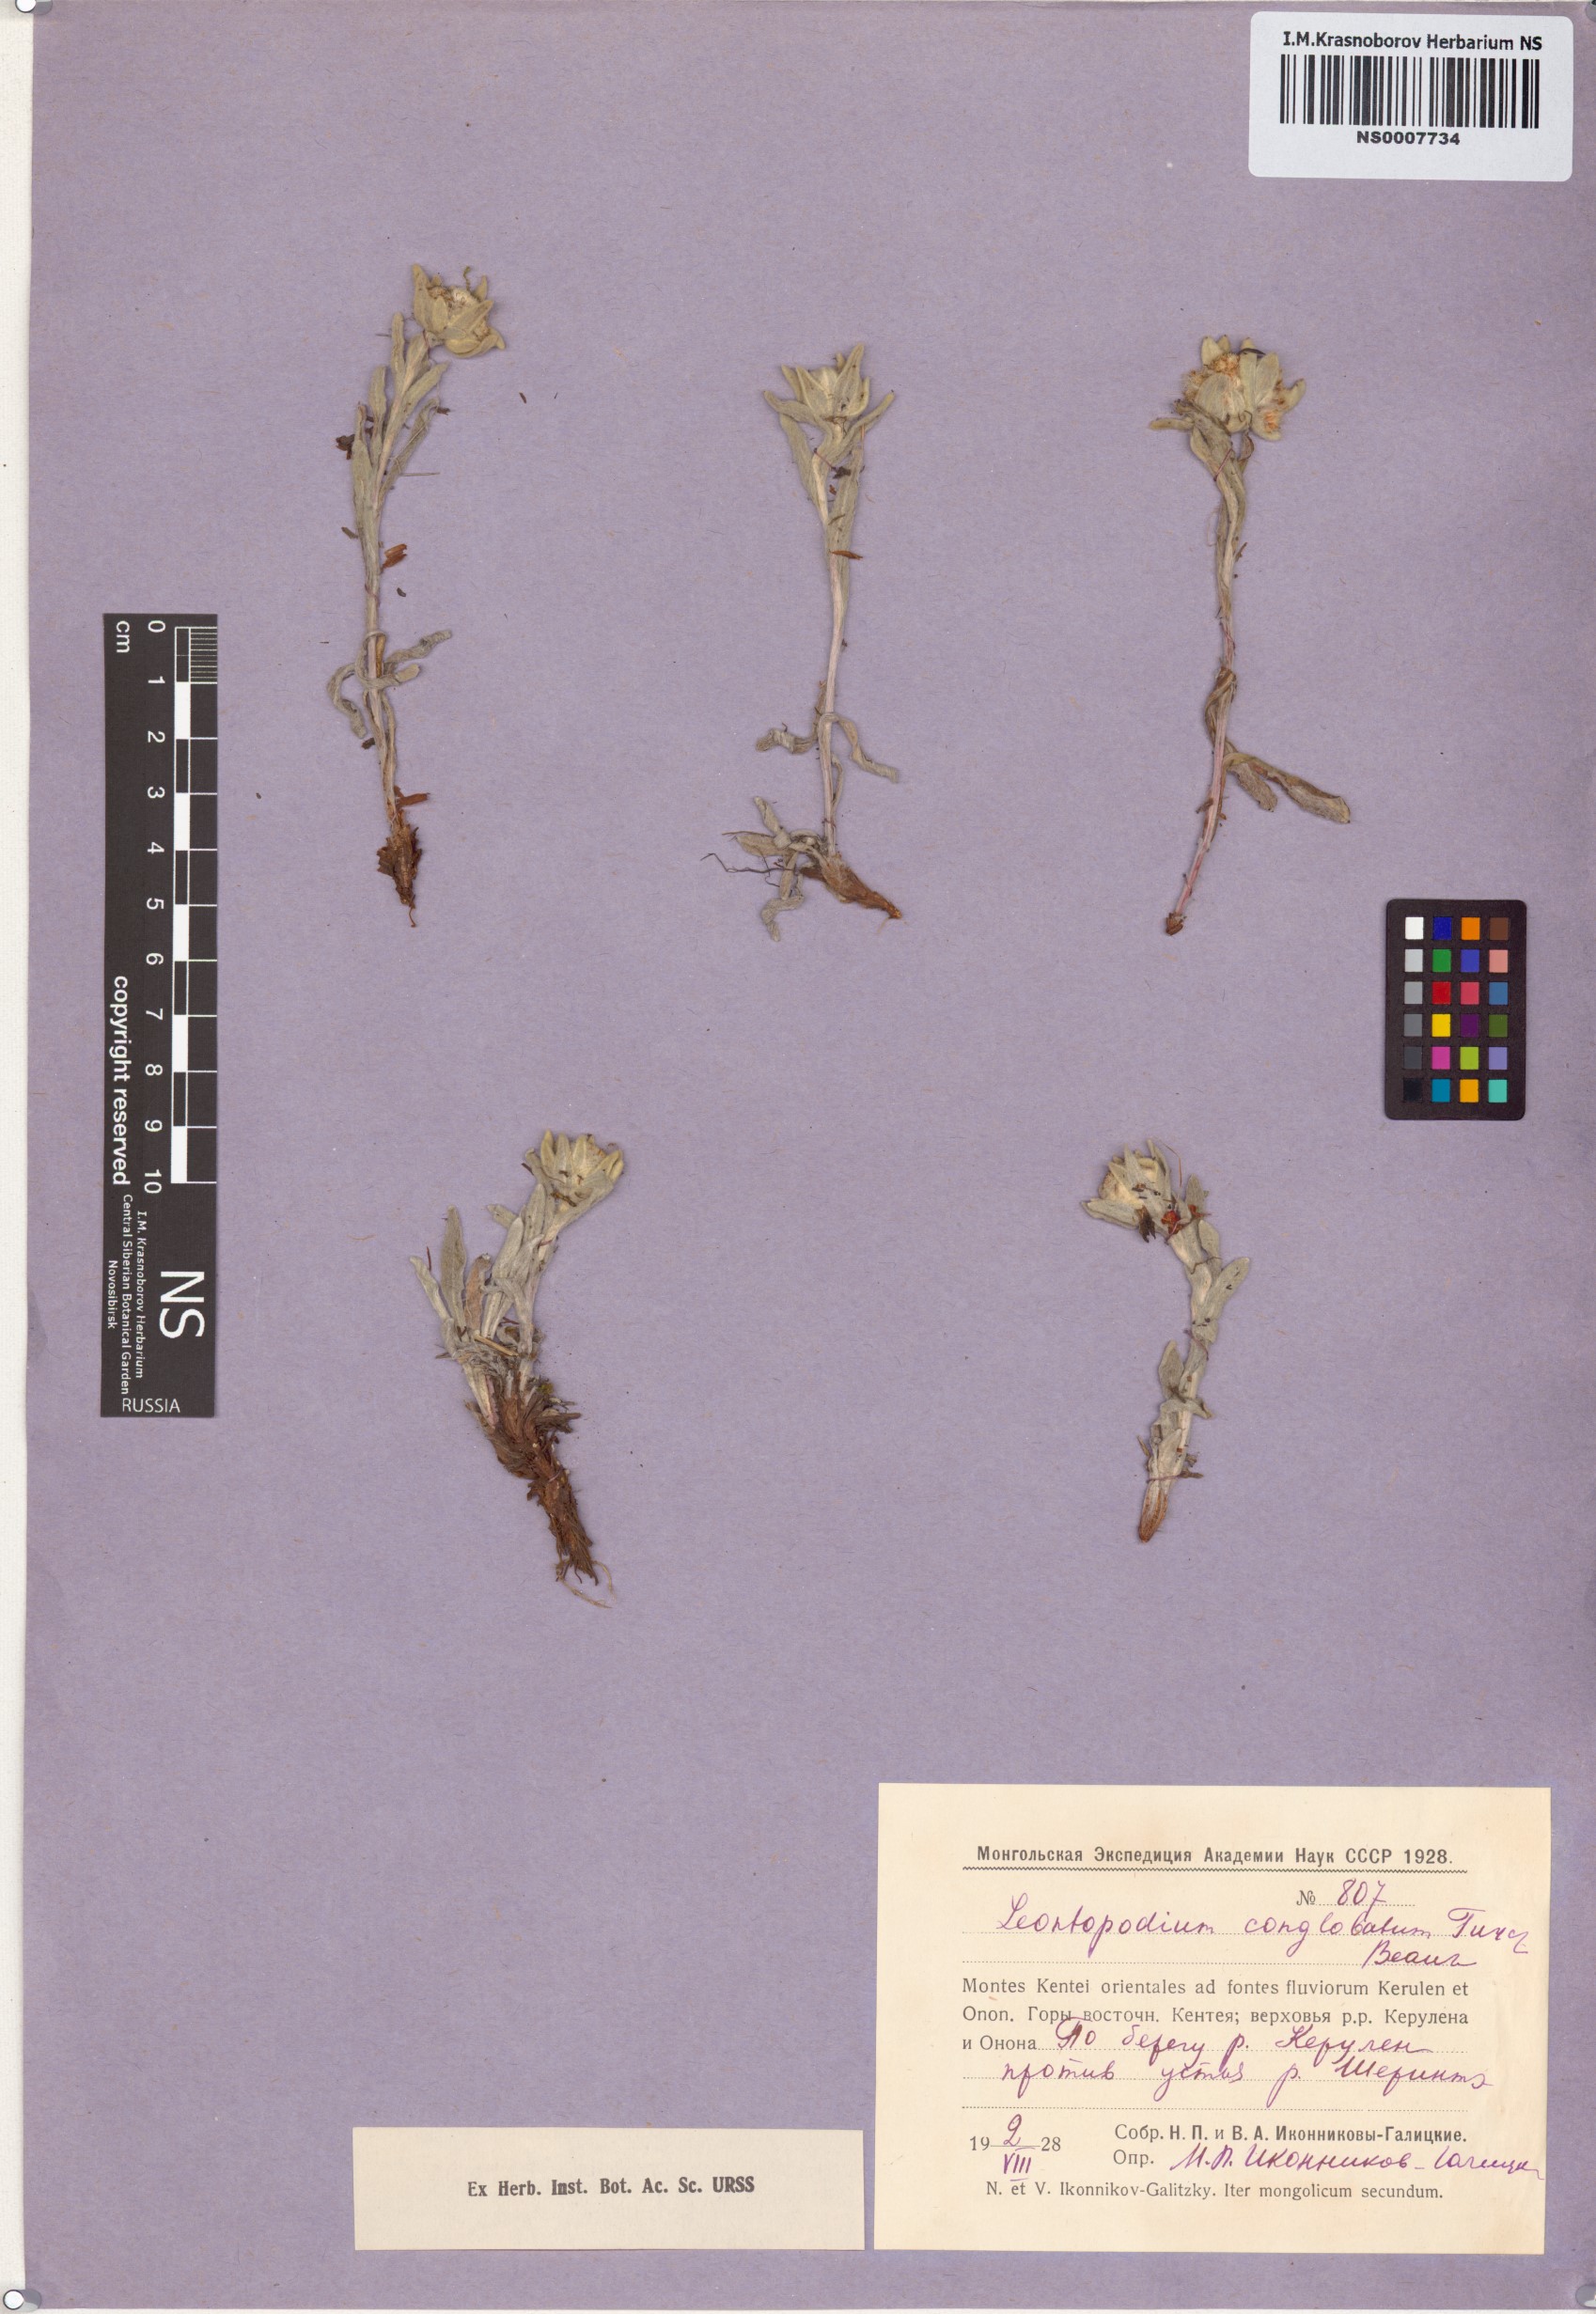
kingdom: Plantae
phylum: Tracheophyta
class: Magnoliopsida
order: Asterales
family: Asteraceae
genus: Leontopodium
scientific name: Leontopodium conglobatum
